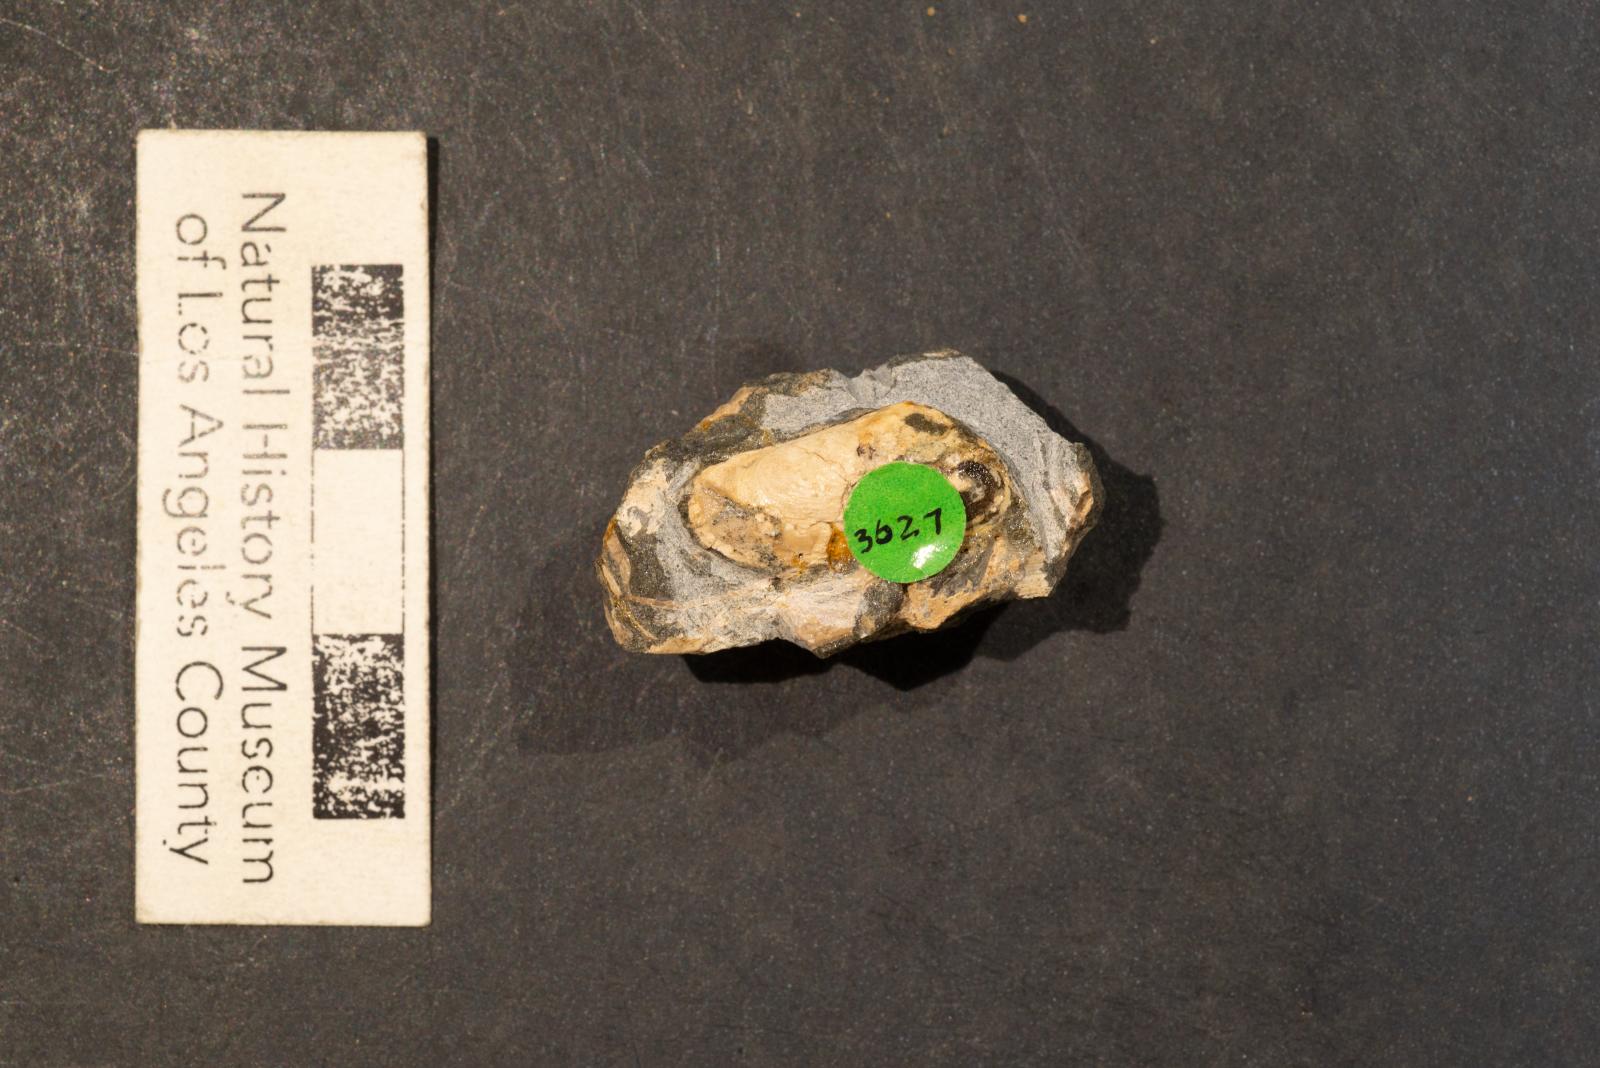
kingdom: Animalia
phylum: Mollusca
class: Bivalvia
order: Cardiida
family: Donacidae
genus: Adelodonax
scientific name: Adelodonax tectus
